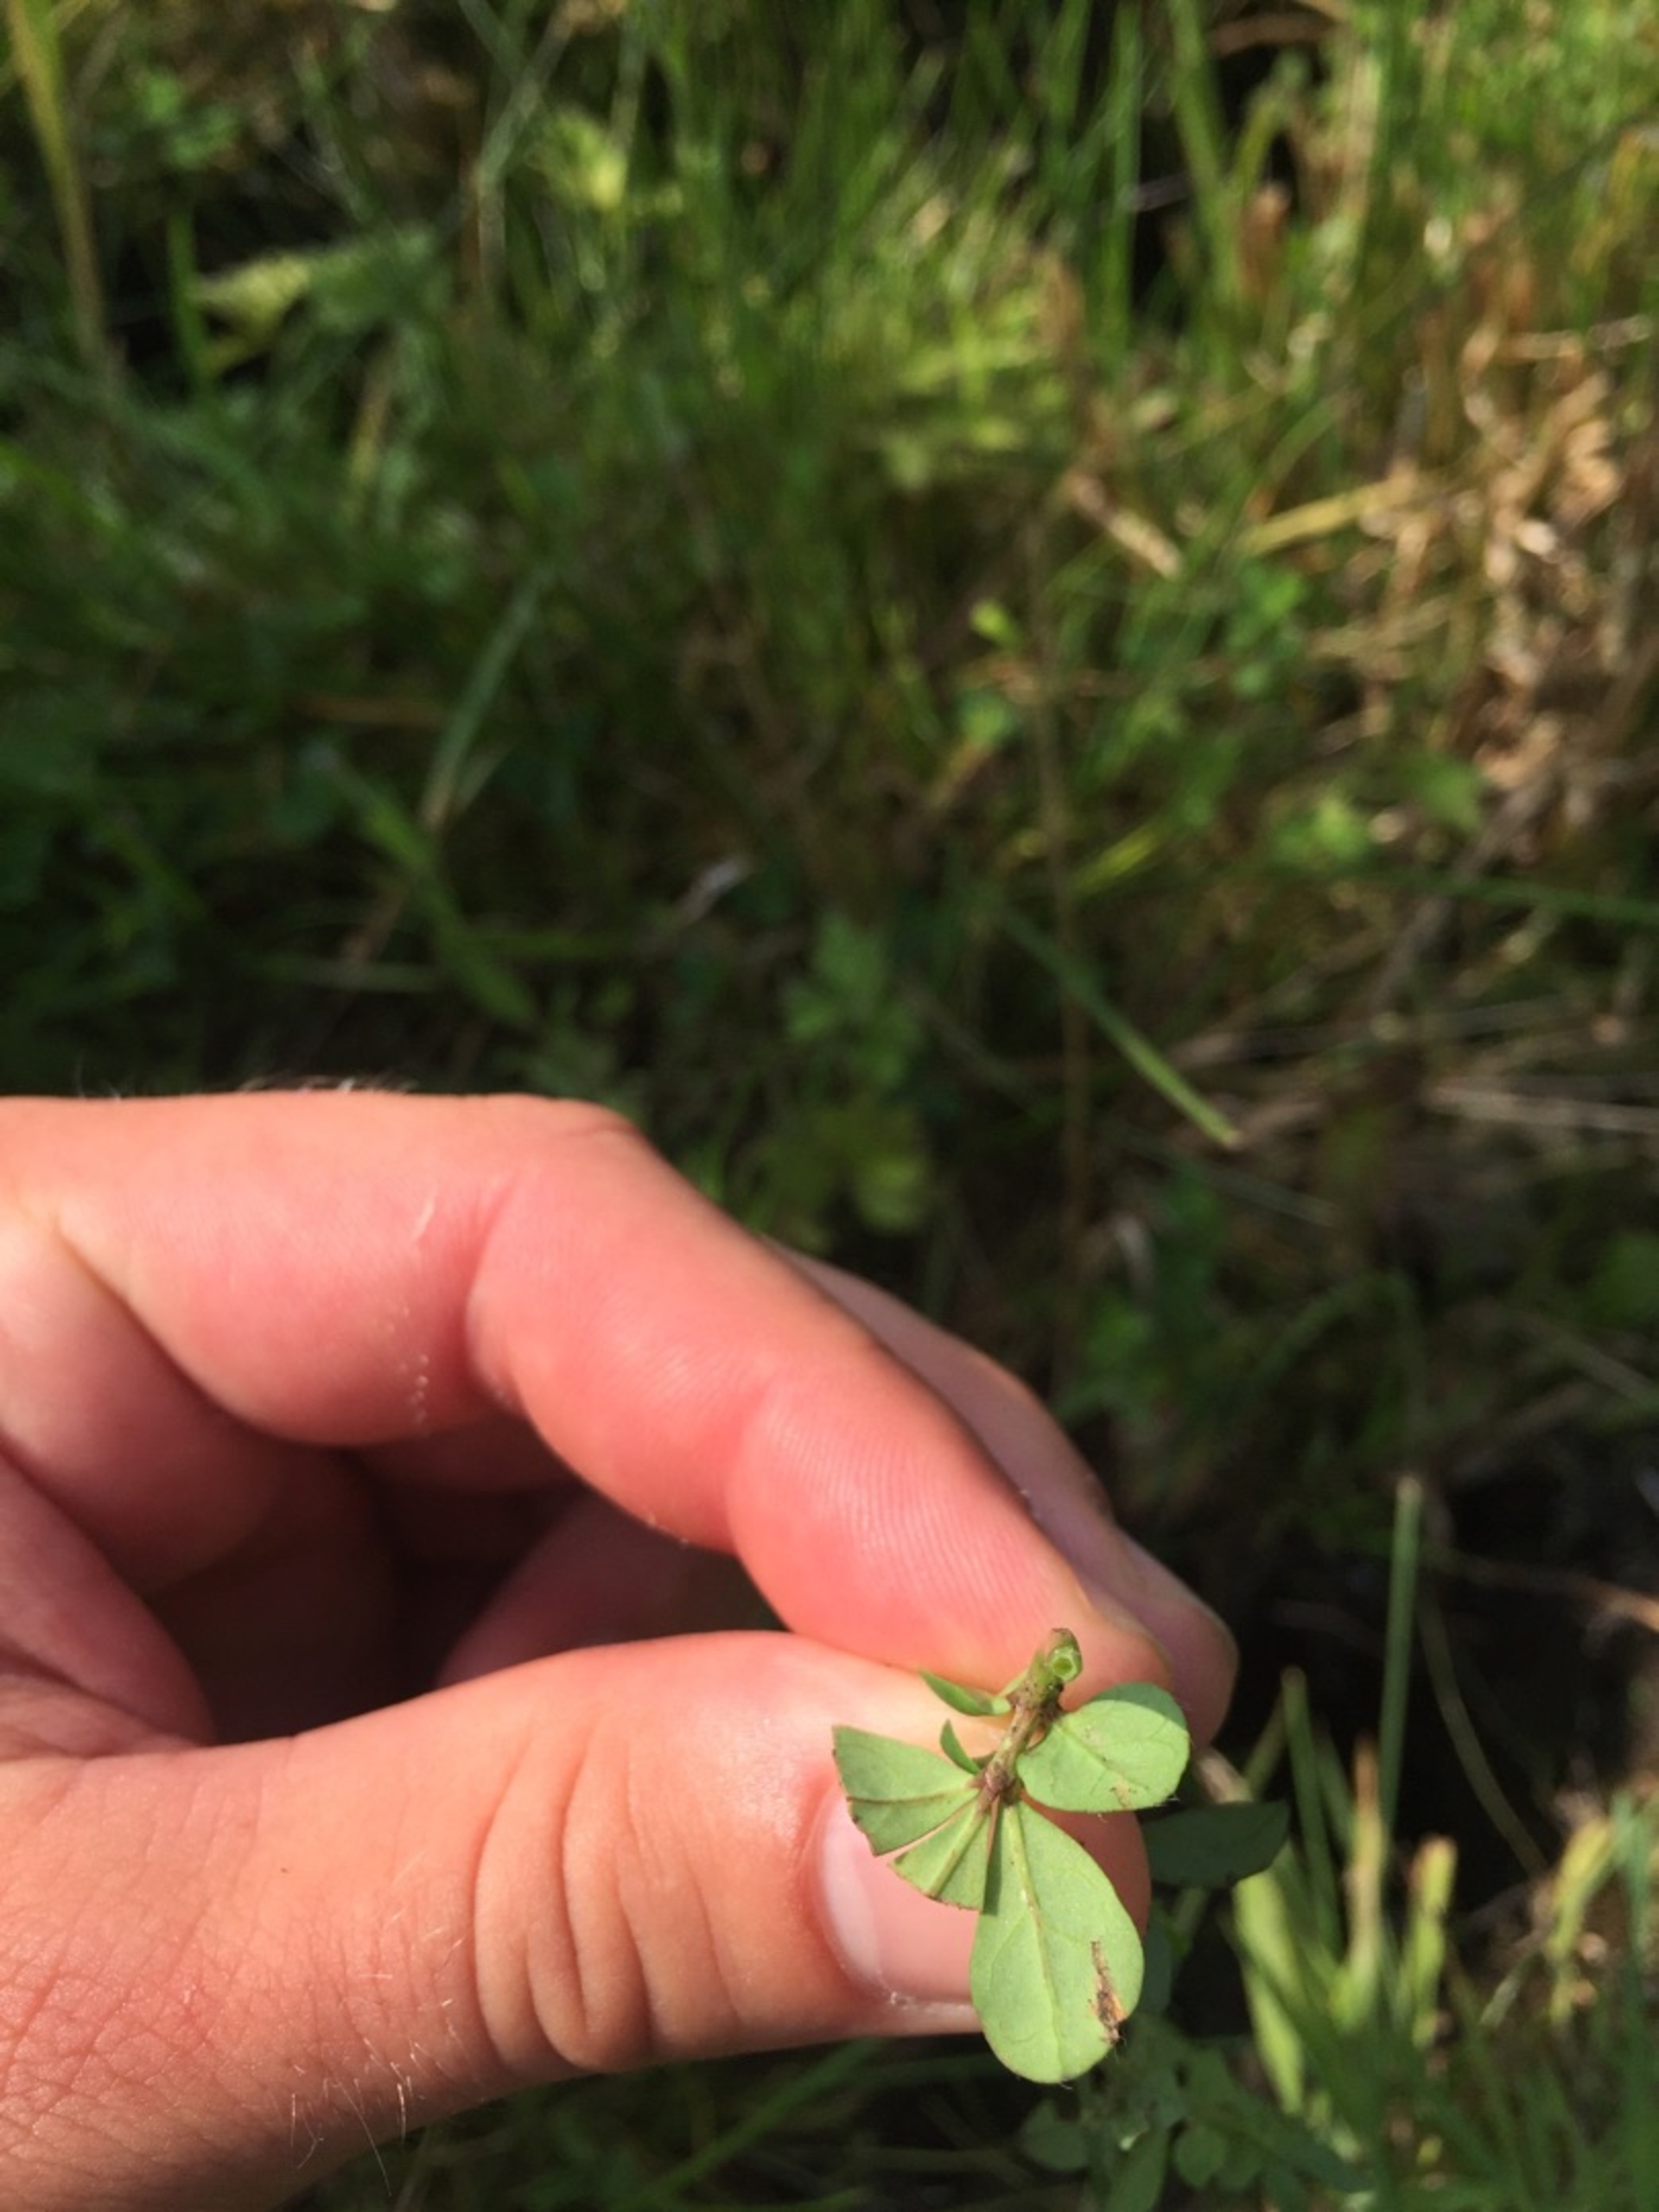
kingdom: Plantae
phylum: Tracheophyta
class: Magnoliopsida
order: Fabales
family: Fabaceae
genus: Lotus
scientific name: Lotus pedunculatus
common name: Sump-kællingetand
